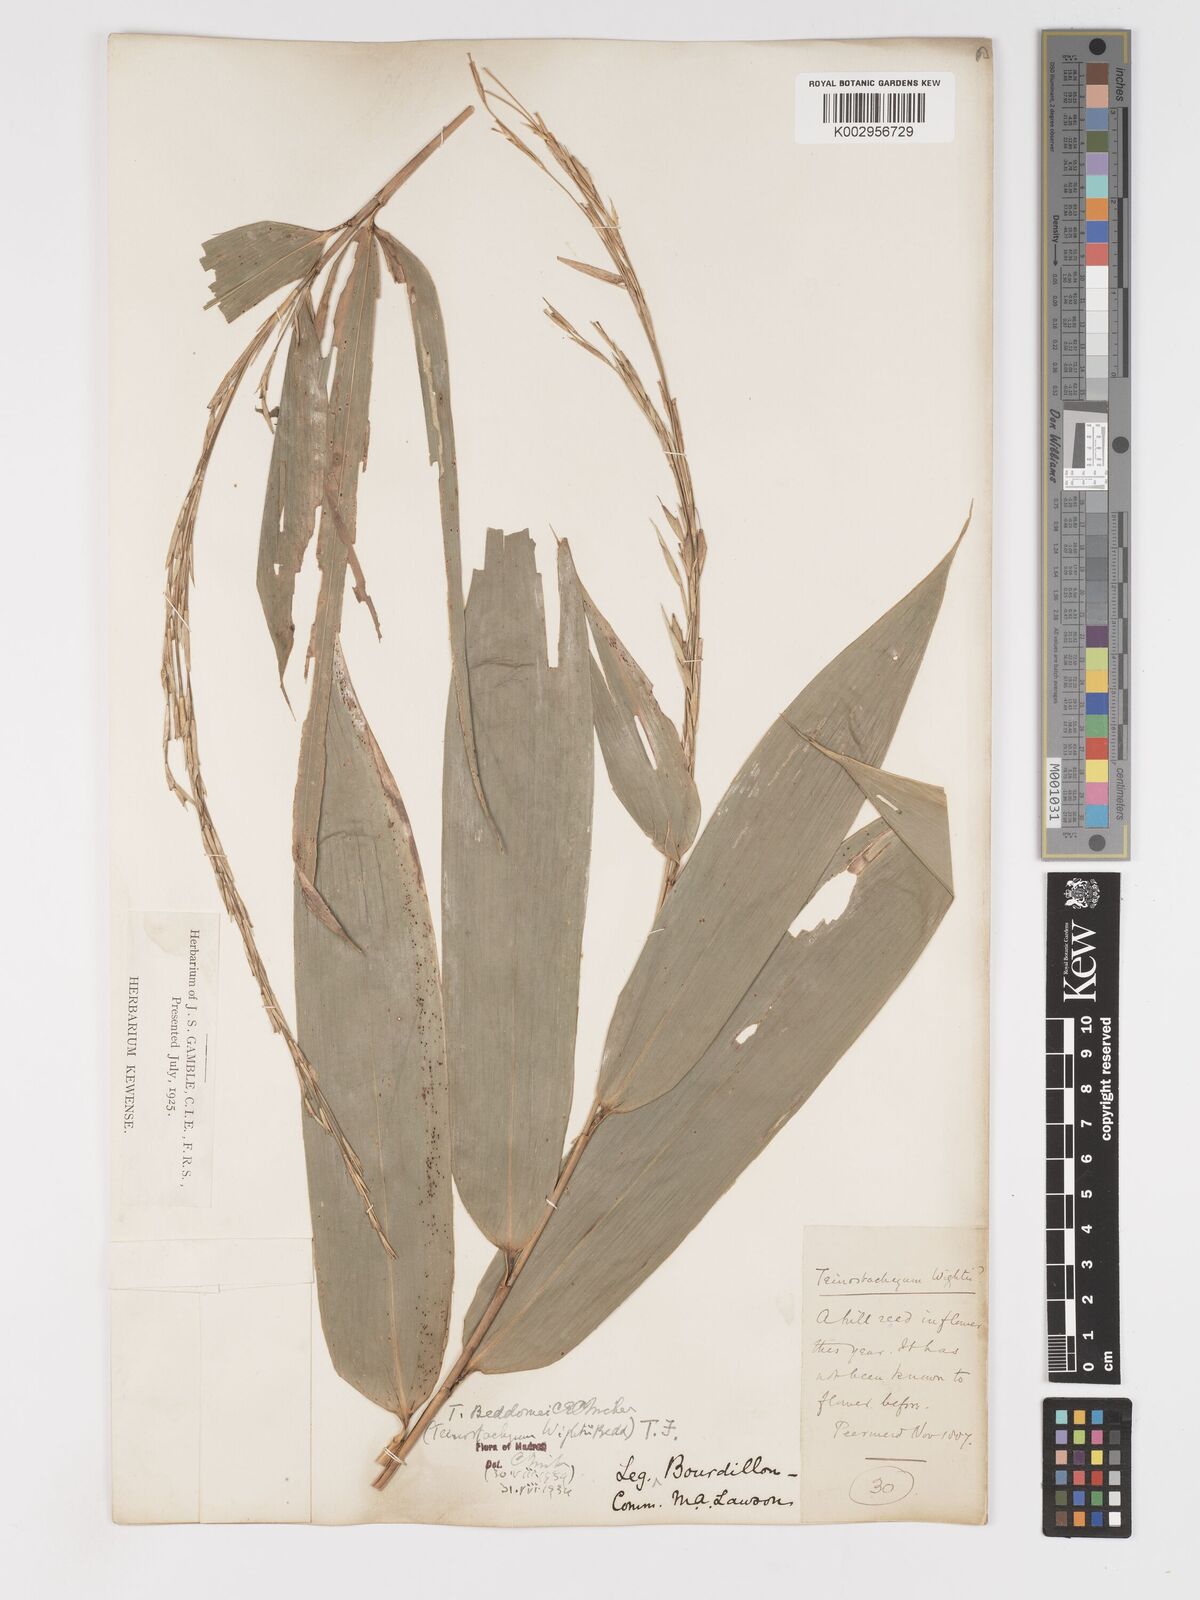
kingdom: Plantae
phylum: Tracheophyta
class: Liliopsida
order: Poales
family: Poaceae
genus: Schizostachyum
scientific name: Schizostachyum beddomei
